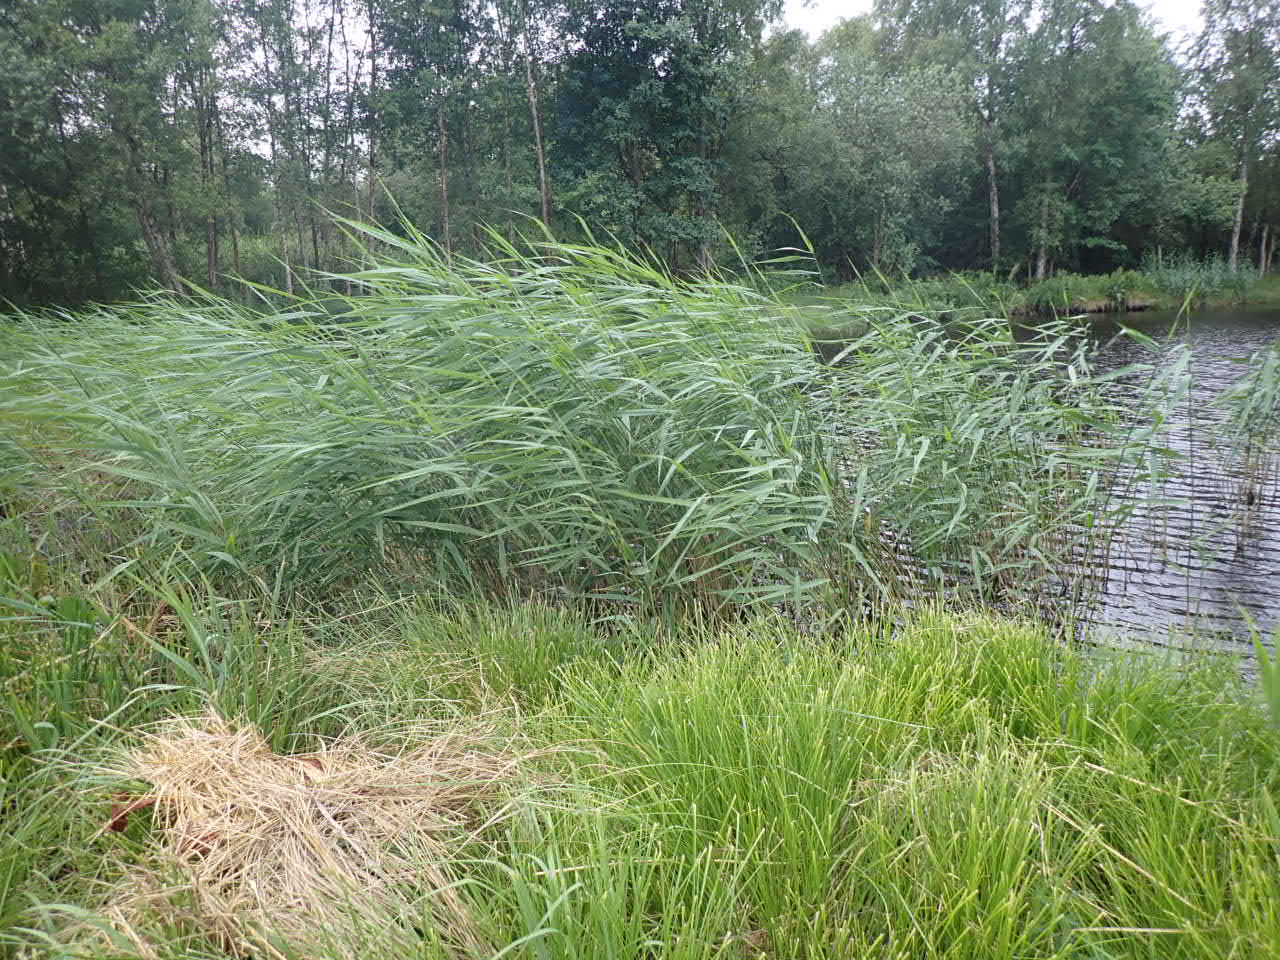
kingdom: Plantae
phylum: Tracheophyta
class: Liliopsida
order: Poales
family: Poaceae
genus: Phragmites
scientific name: Phragmites australis
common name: Tagrør
